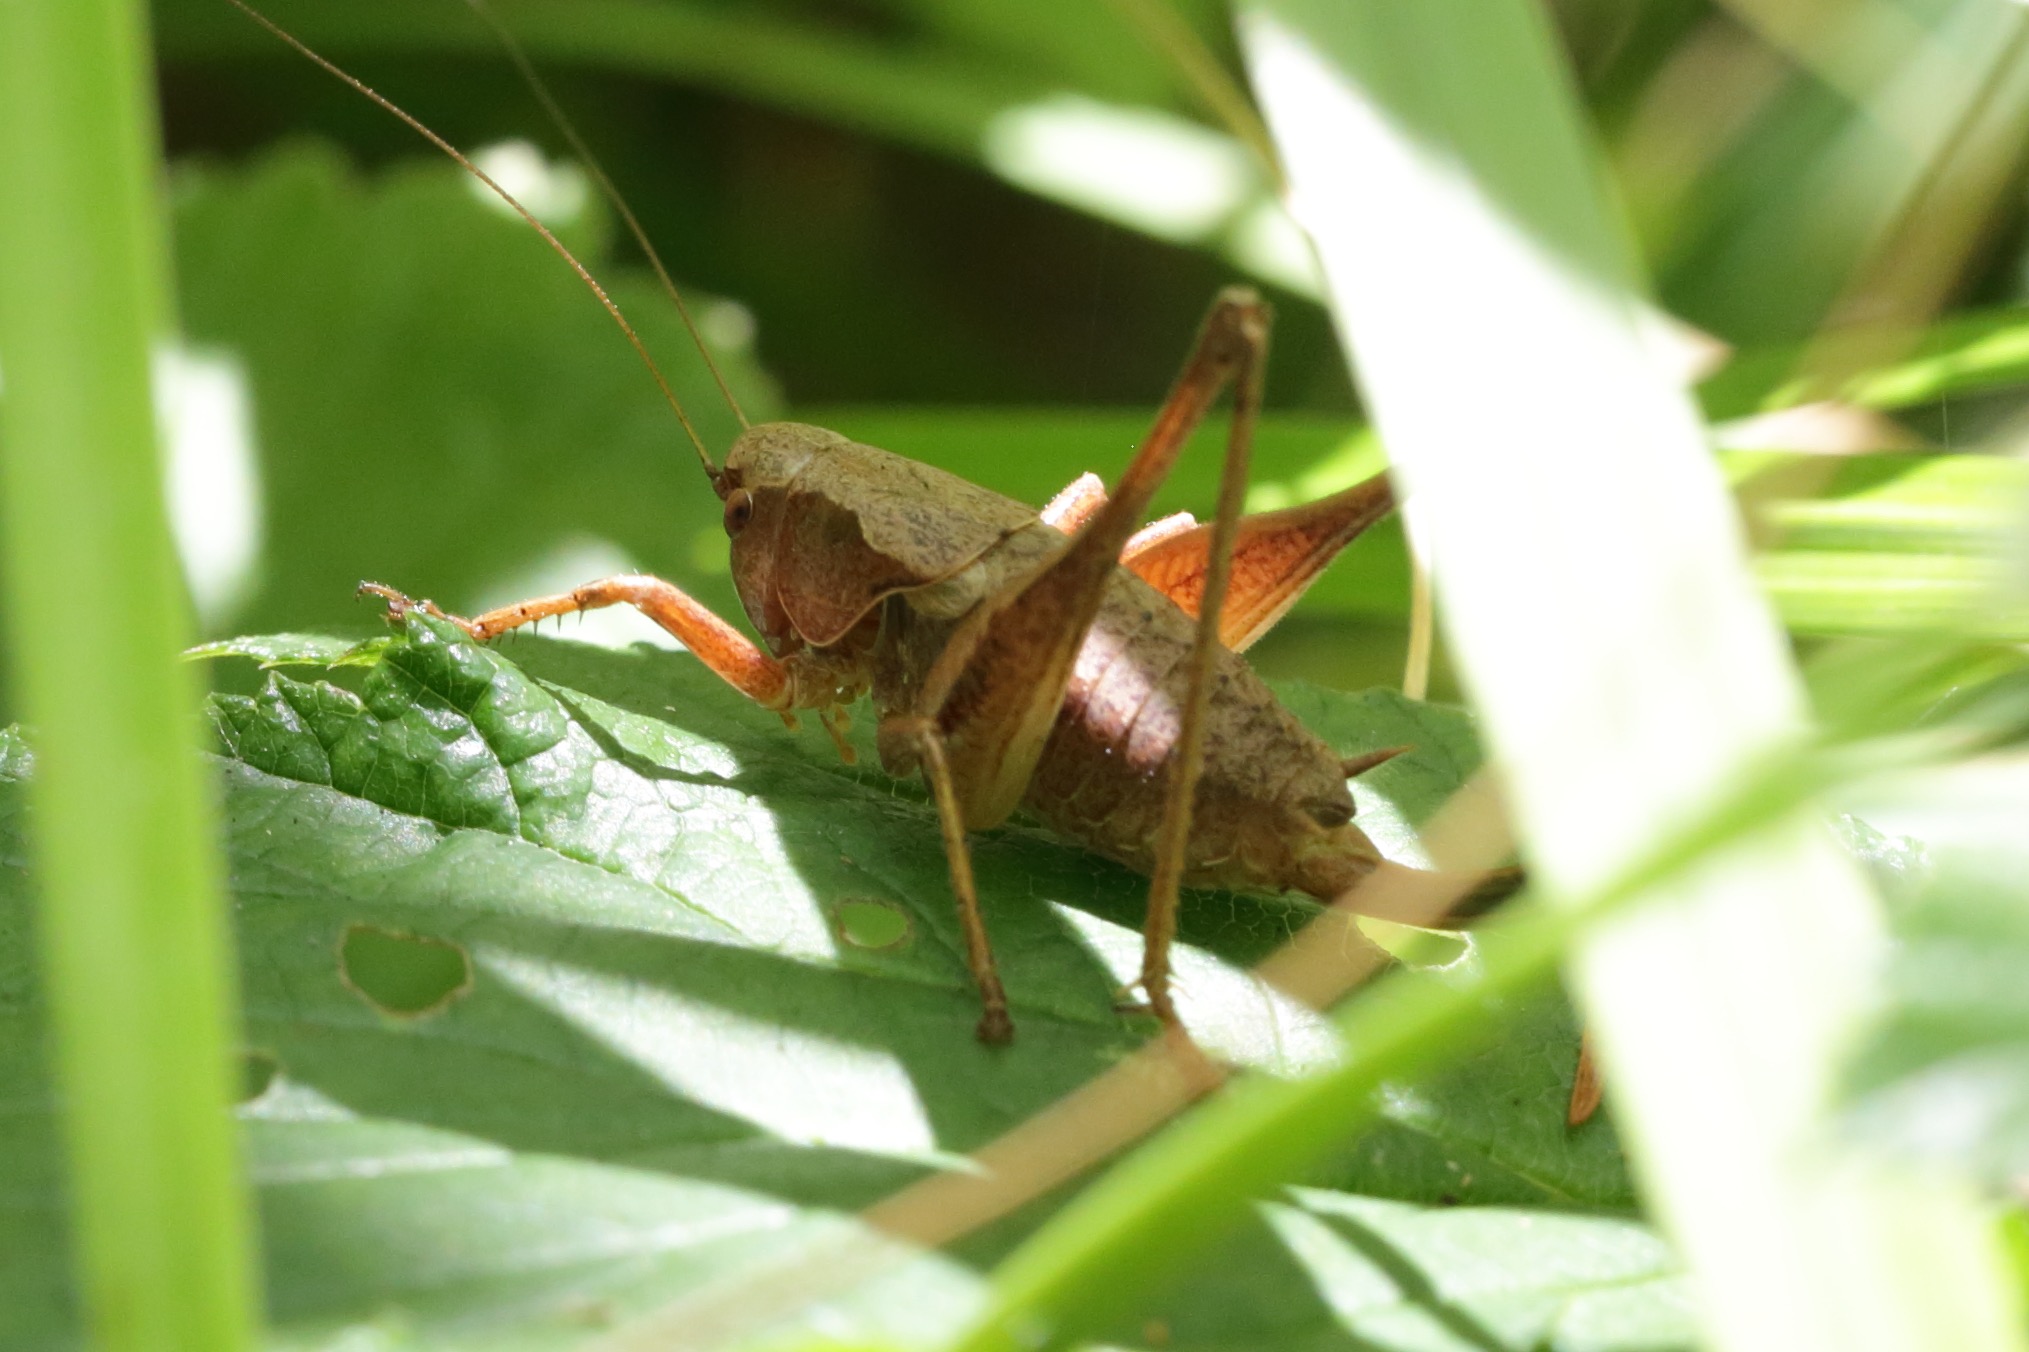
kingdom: Animalia
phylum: Arthropoda
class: Insecta
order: Orthoptera
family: Tettigoniidae
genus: Pholidoptera
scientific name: Pholidoptera griseoaptera
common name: Buskgræshoppe
